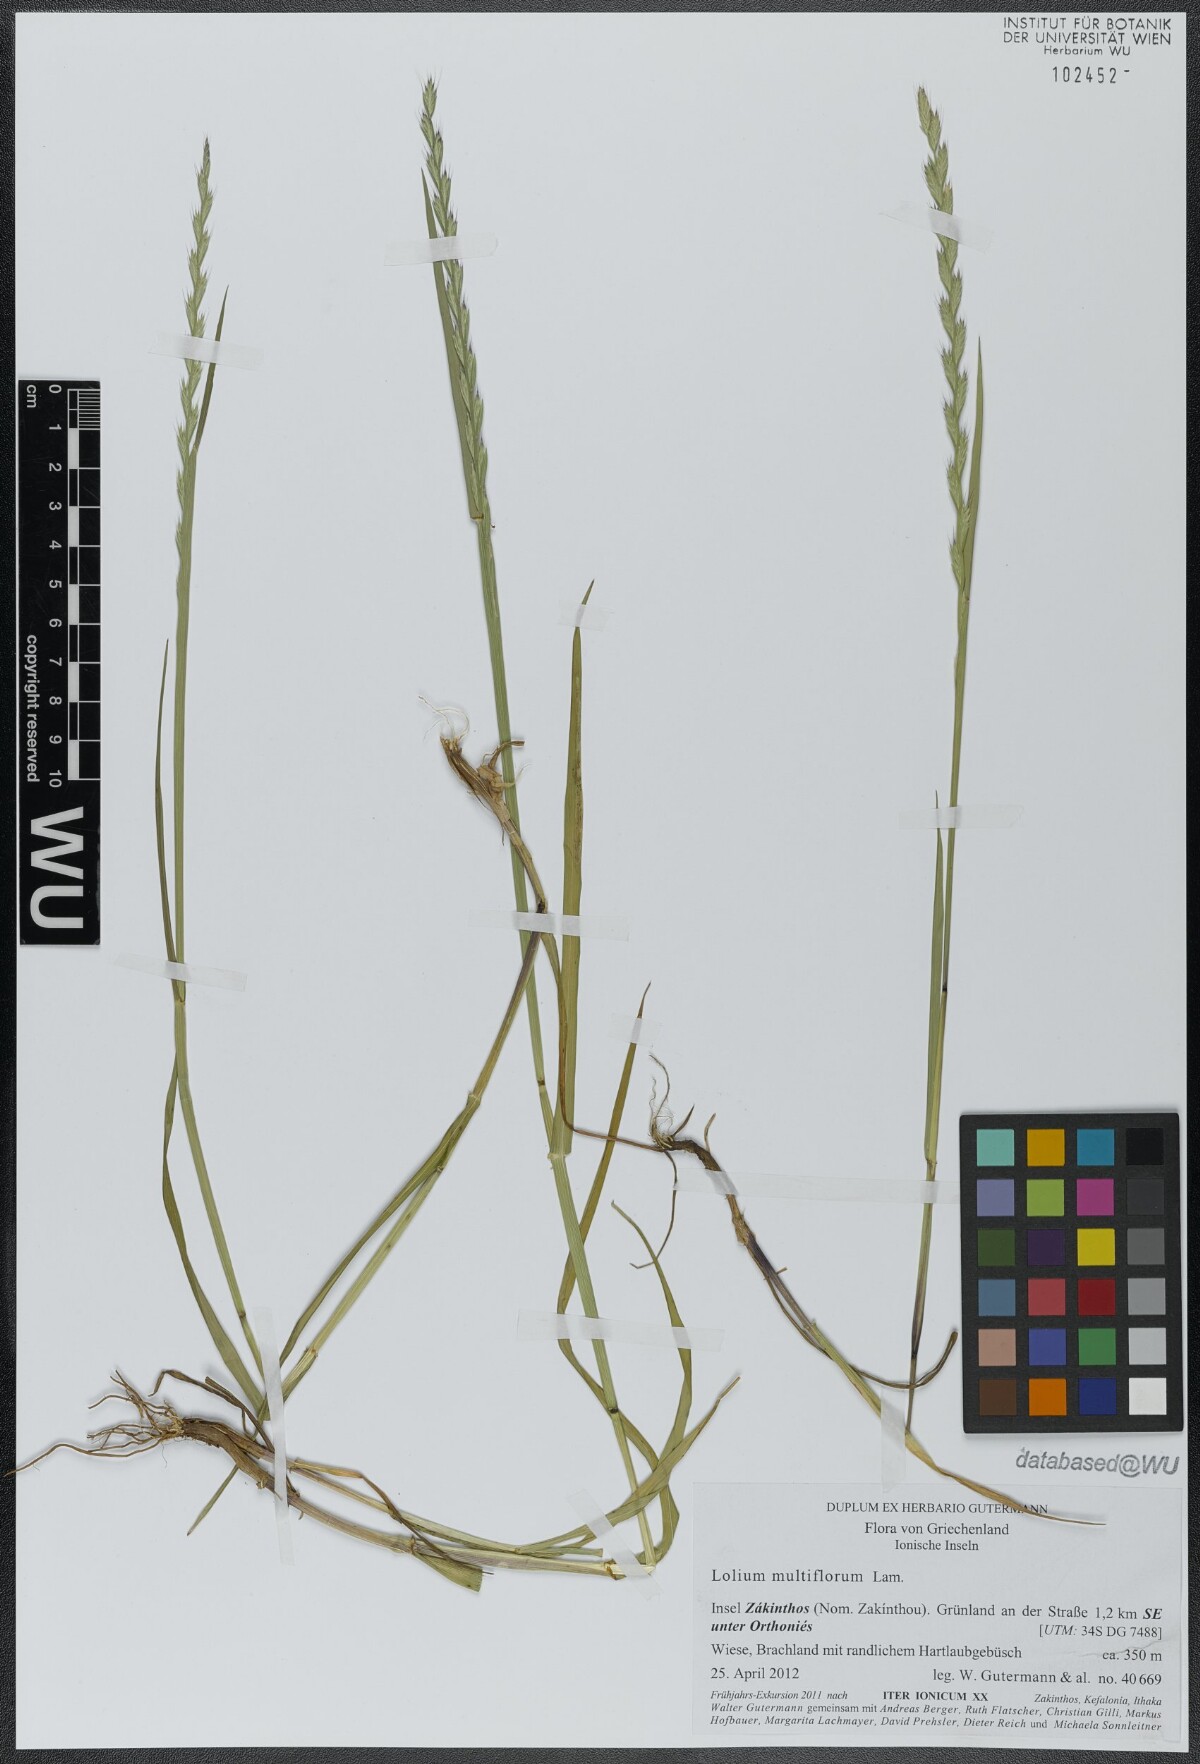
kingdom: Plantae
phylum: Tracheophyta
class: Liliopsida
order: Poales
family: Poaceae
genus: Lolium
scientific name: Lolium multiflorum
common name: Annual ryegrass
